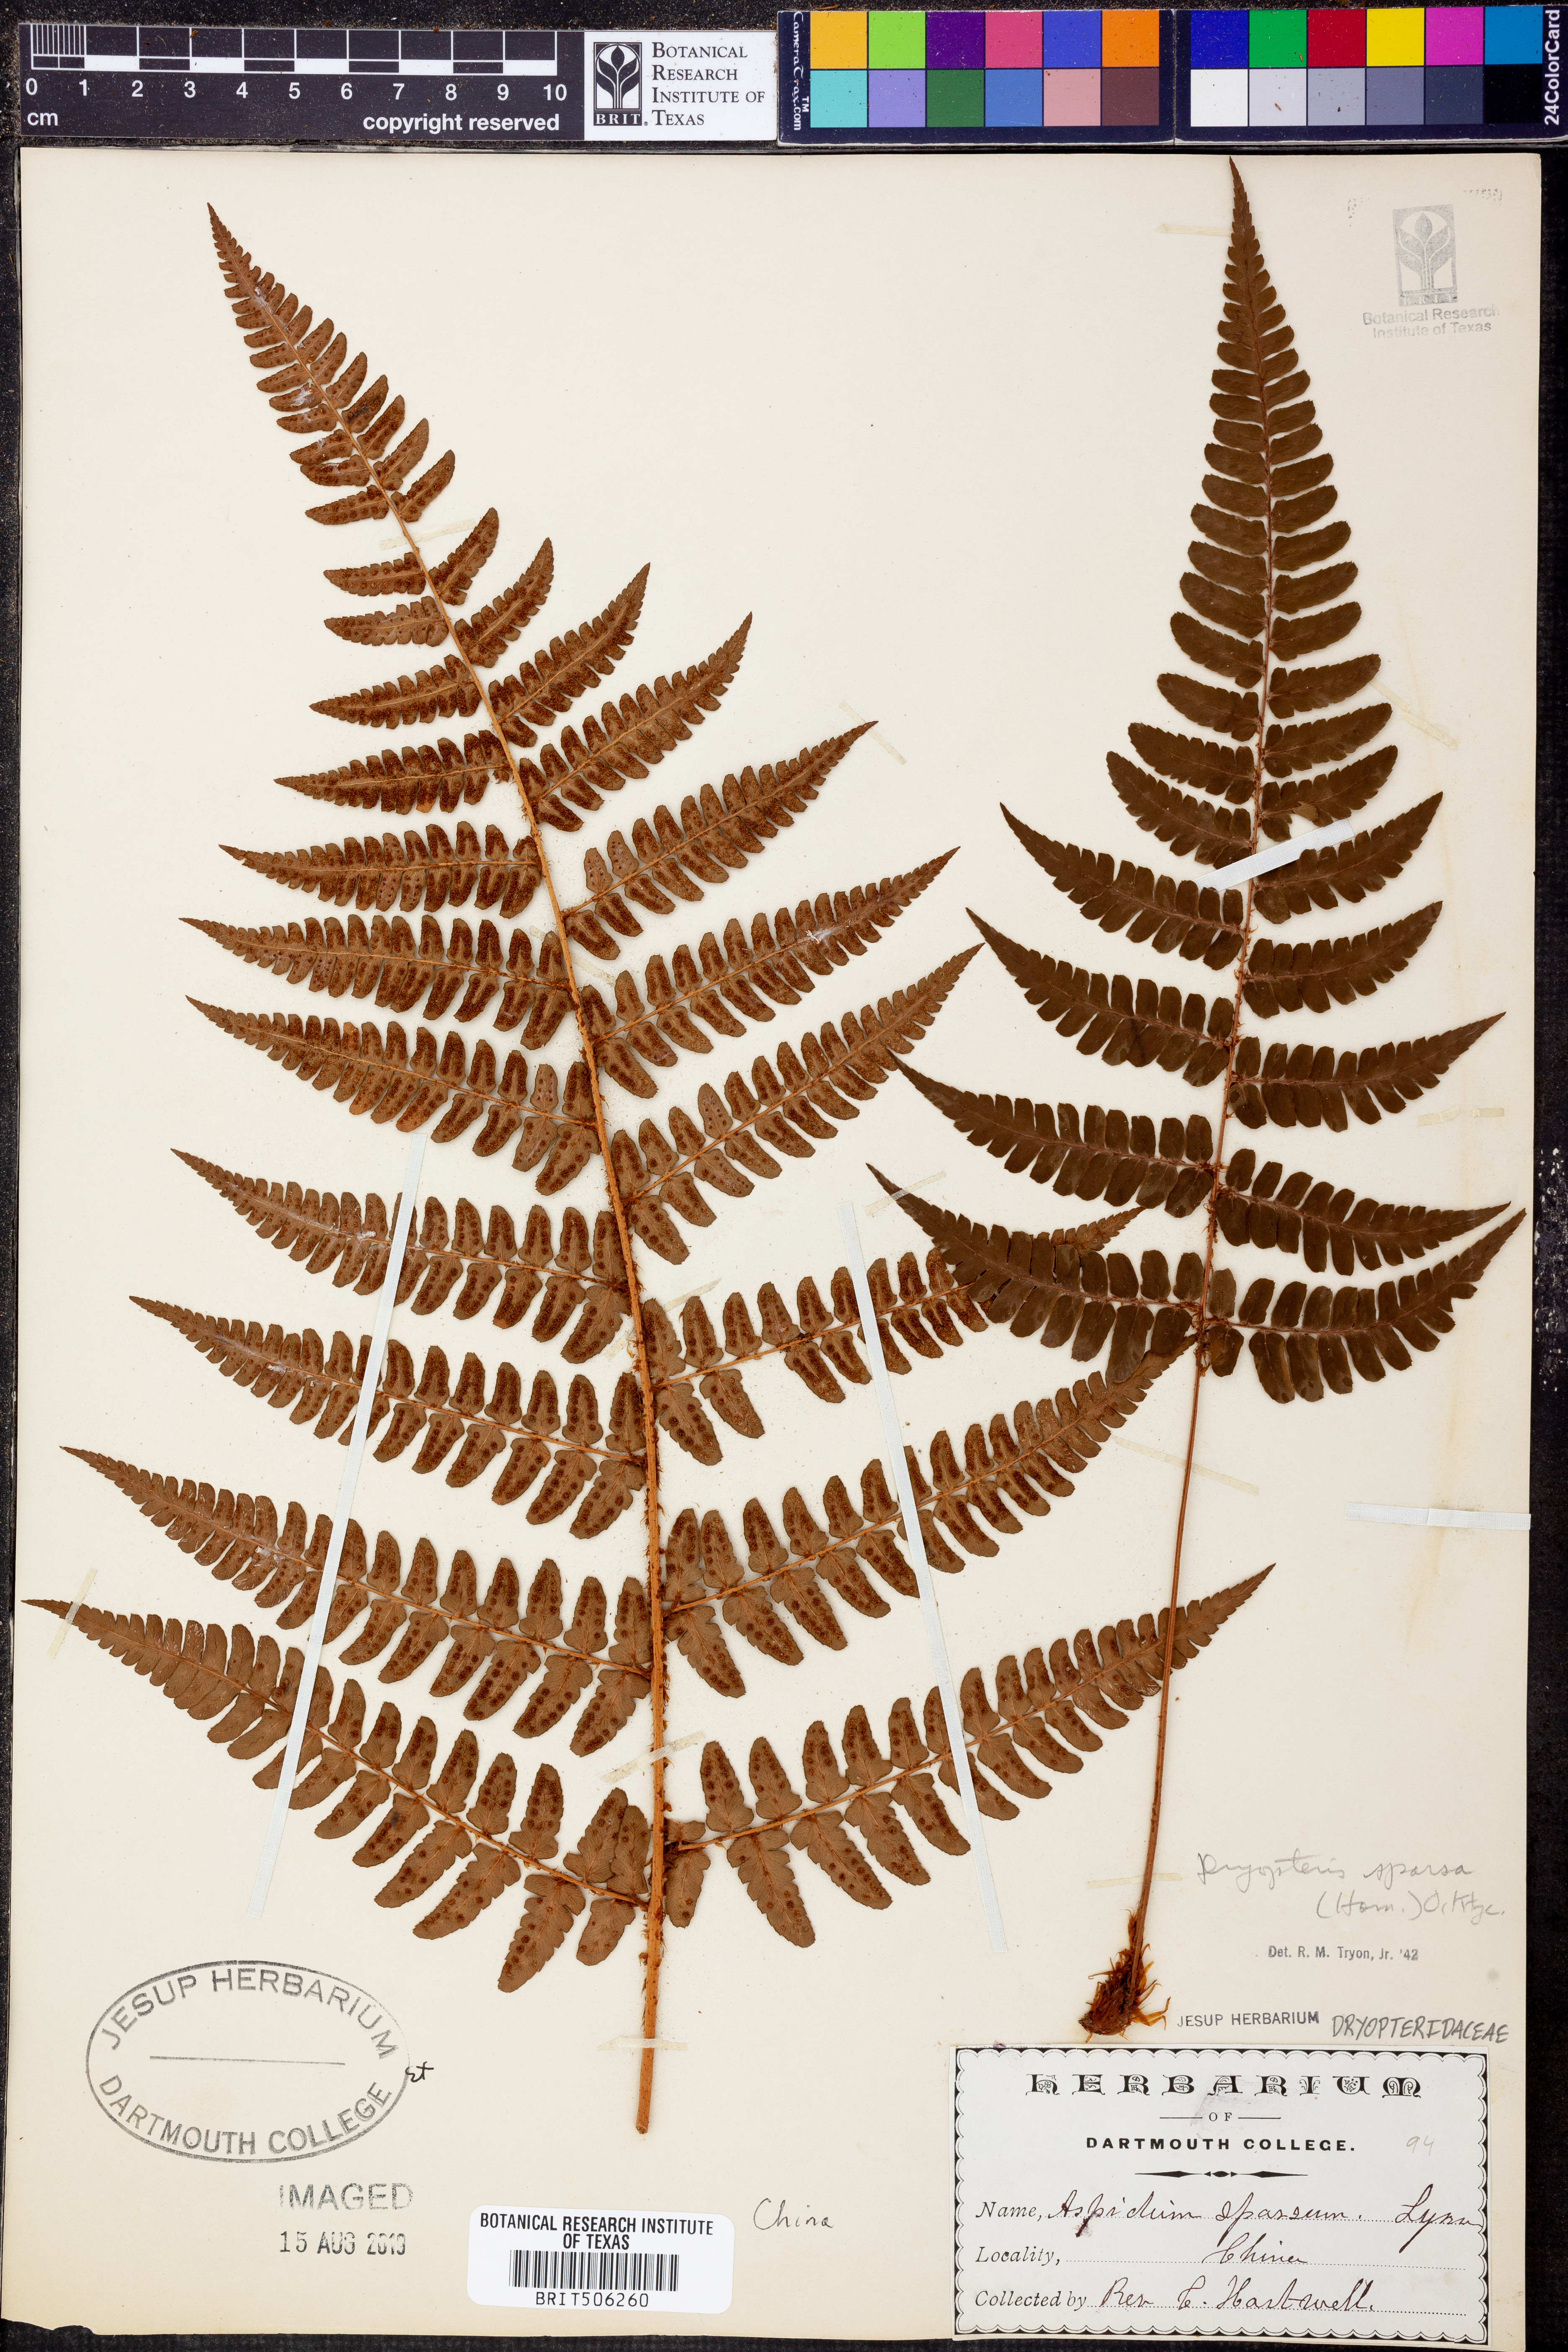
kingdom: Plantae
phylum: Tracheophyta
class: Polypodiopsida
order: Polypodiales
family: Dryopteridaceae
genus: Dryopteris
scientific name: Dryopteris sparsa
